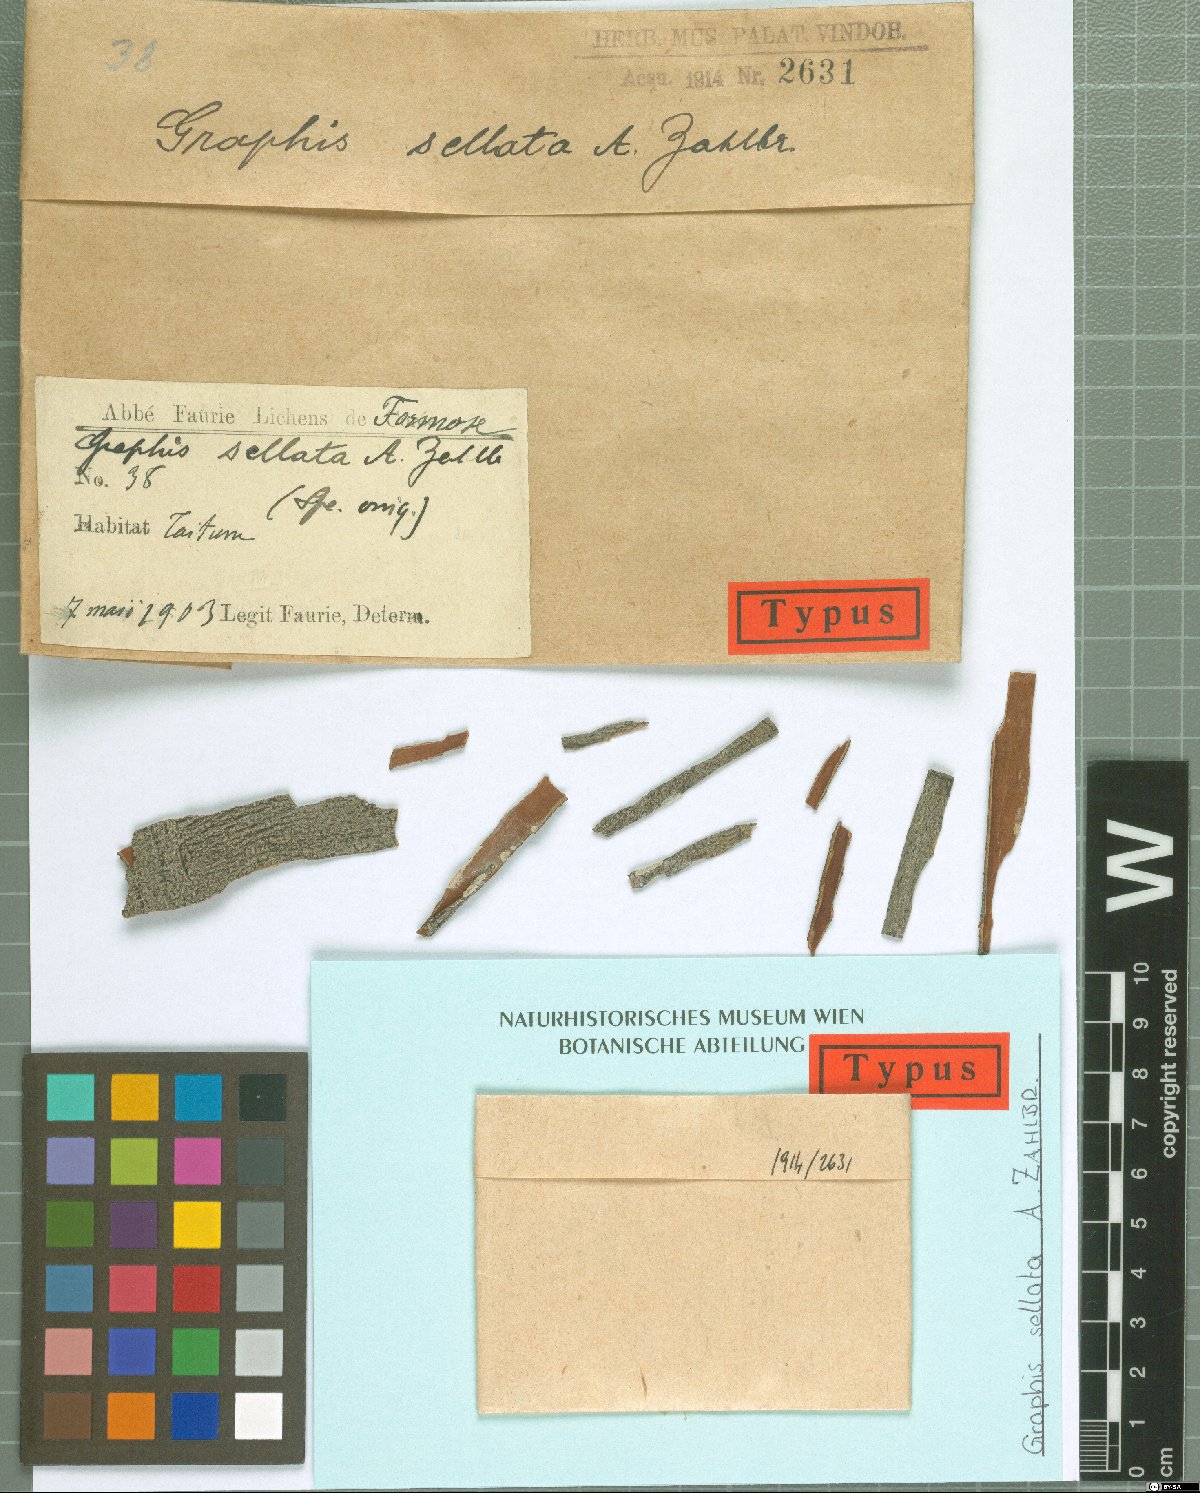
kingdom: Fungi
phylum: Ascomycota
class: Lecanoromycetes
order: Ostropales
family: Graphidaceae
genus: Graphis
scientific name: Graphis
